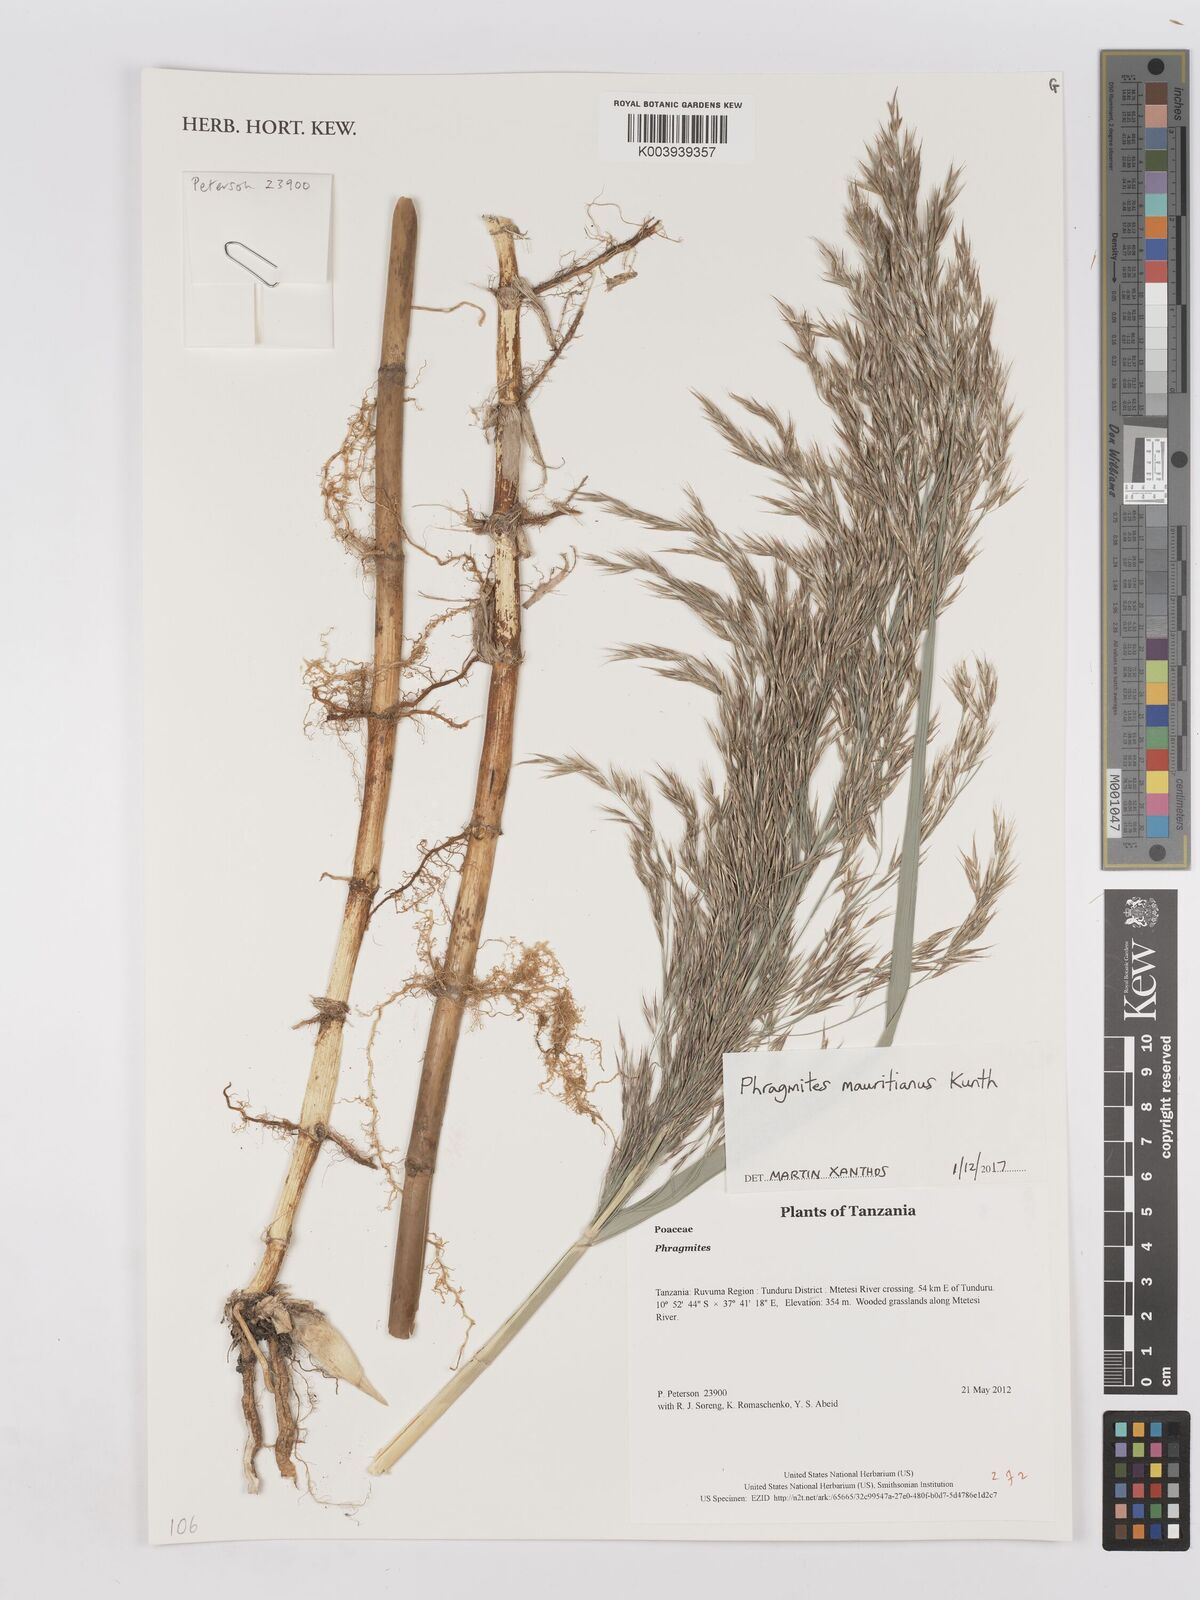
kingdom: Plantae
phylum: Tracheophyta
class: Liliopsida
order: Poales
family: Poaceae
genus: Phragmites
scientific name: Phragmites mauritianus
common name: Reed grass
